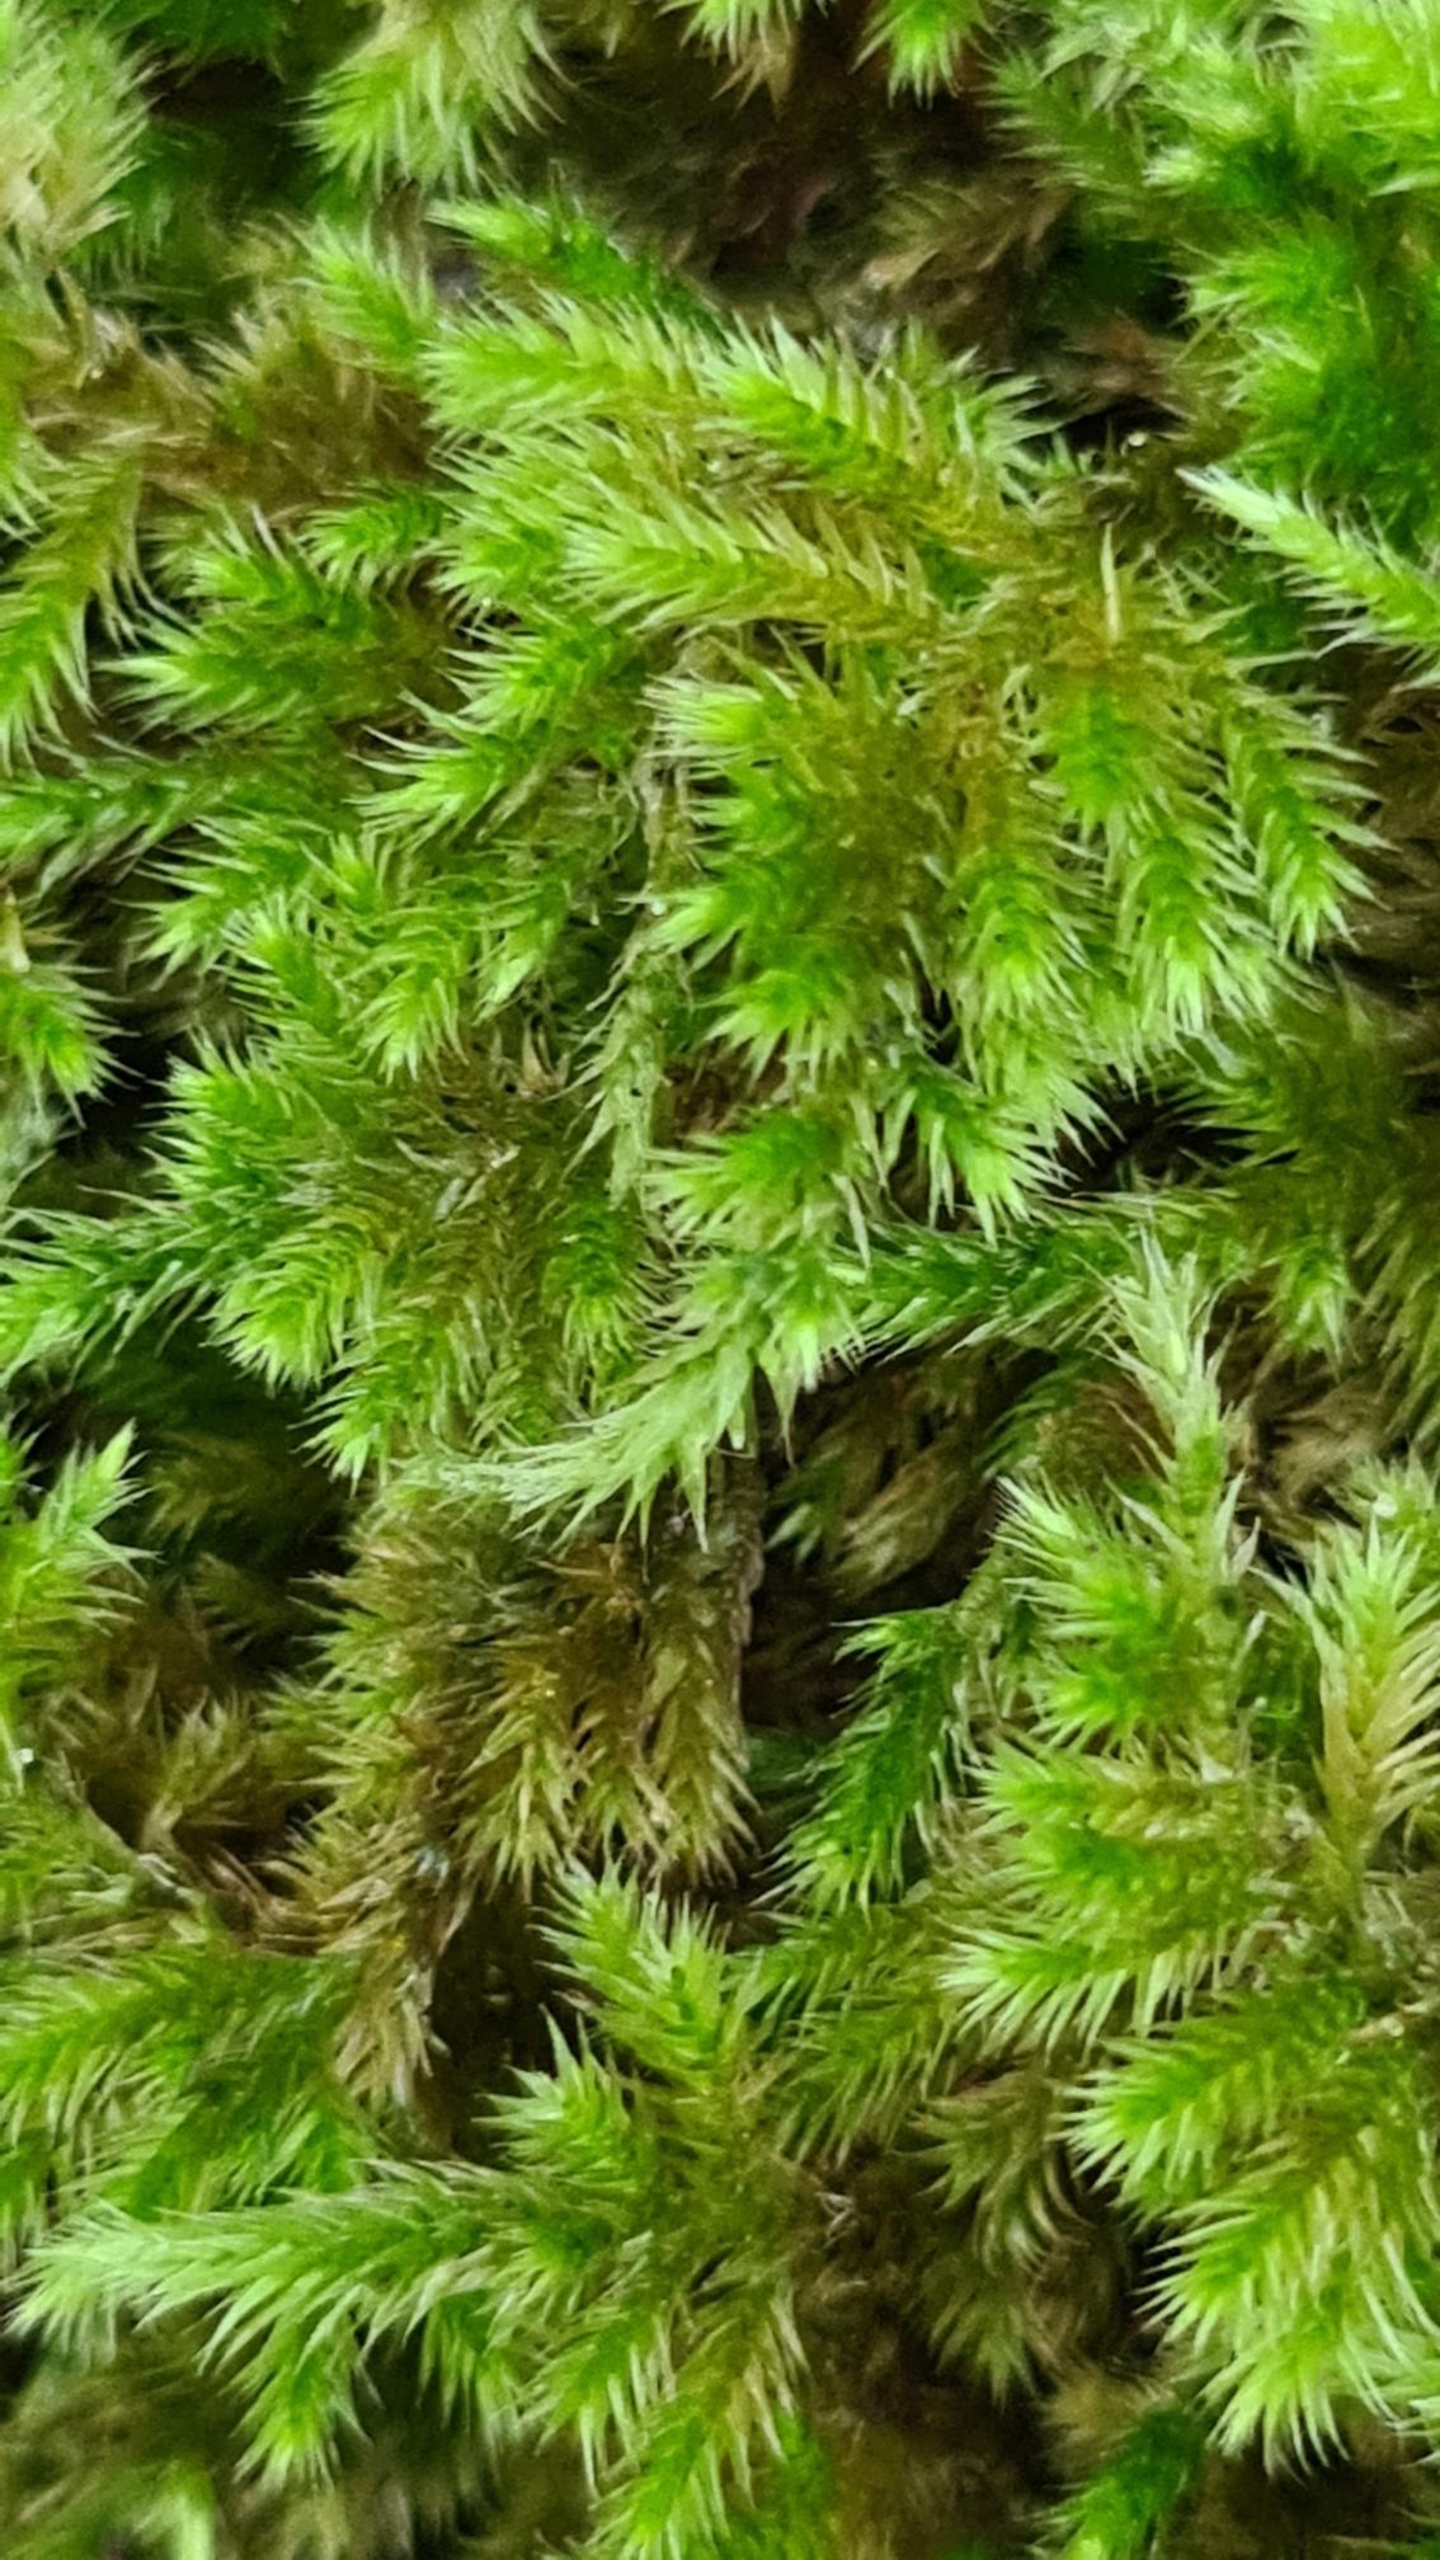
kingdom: Plantae
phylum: Bryophyta
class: Bryopsida
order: Hypnales
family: Brachytheciaceae
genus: Homalothecium
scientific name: Homalothecium sericeum
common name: Krybende silkemos
